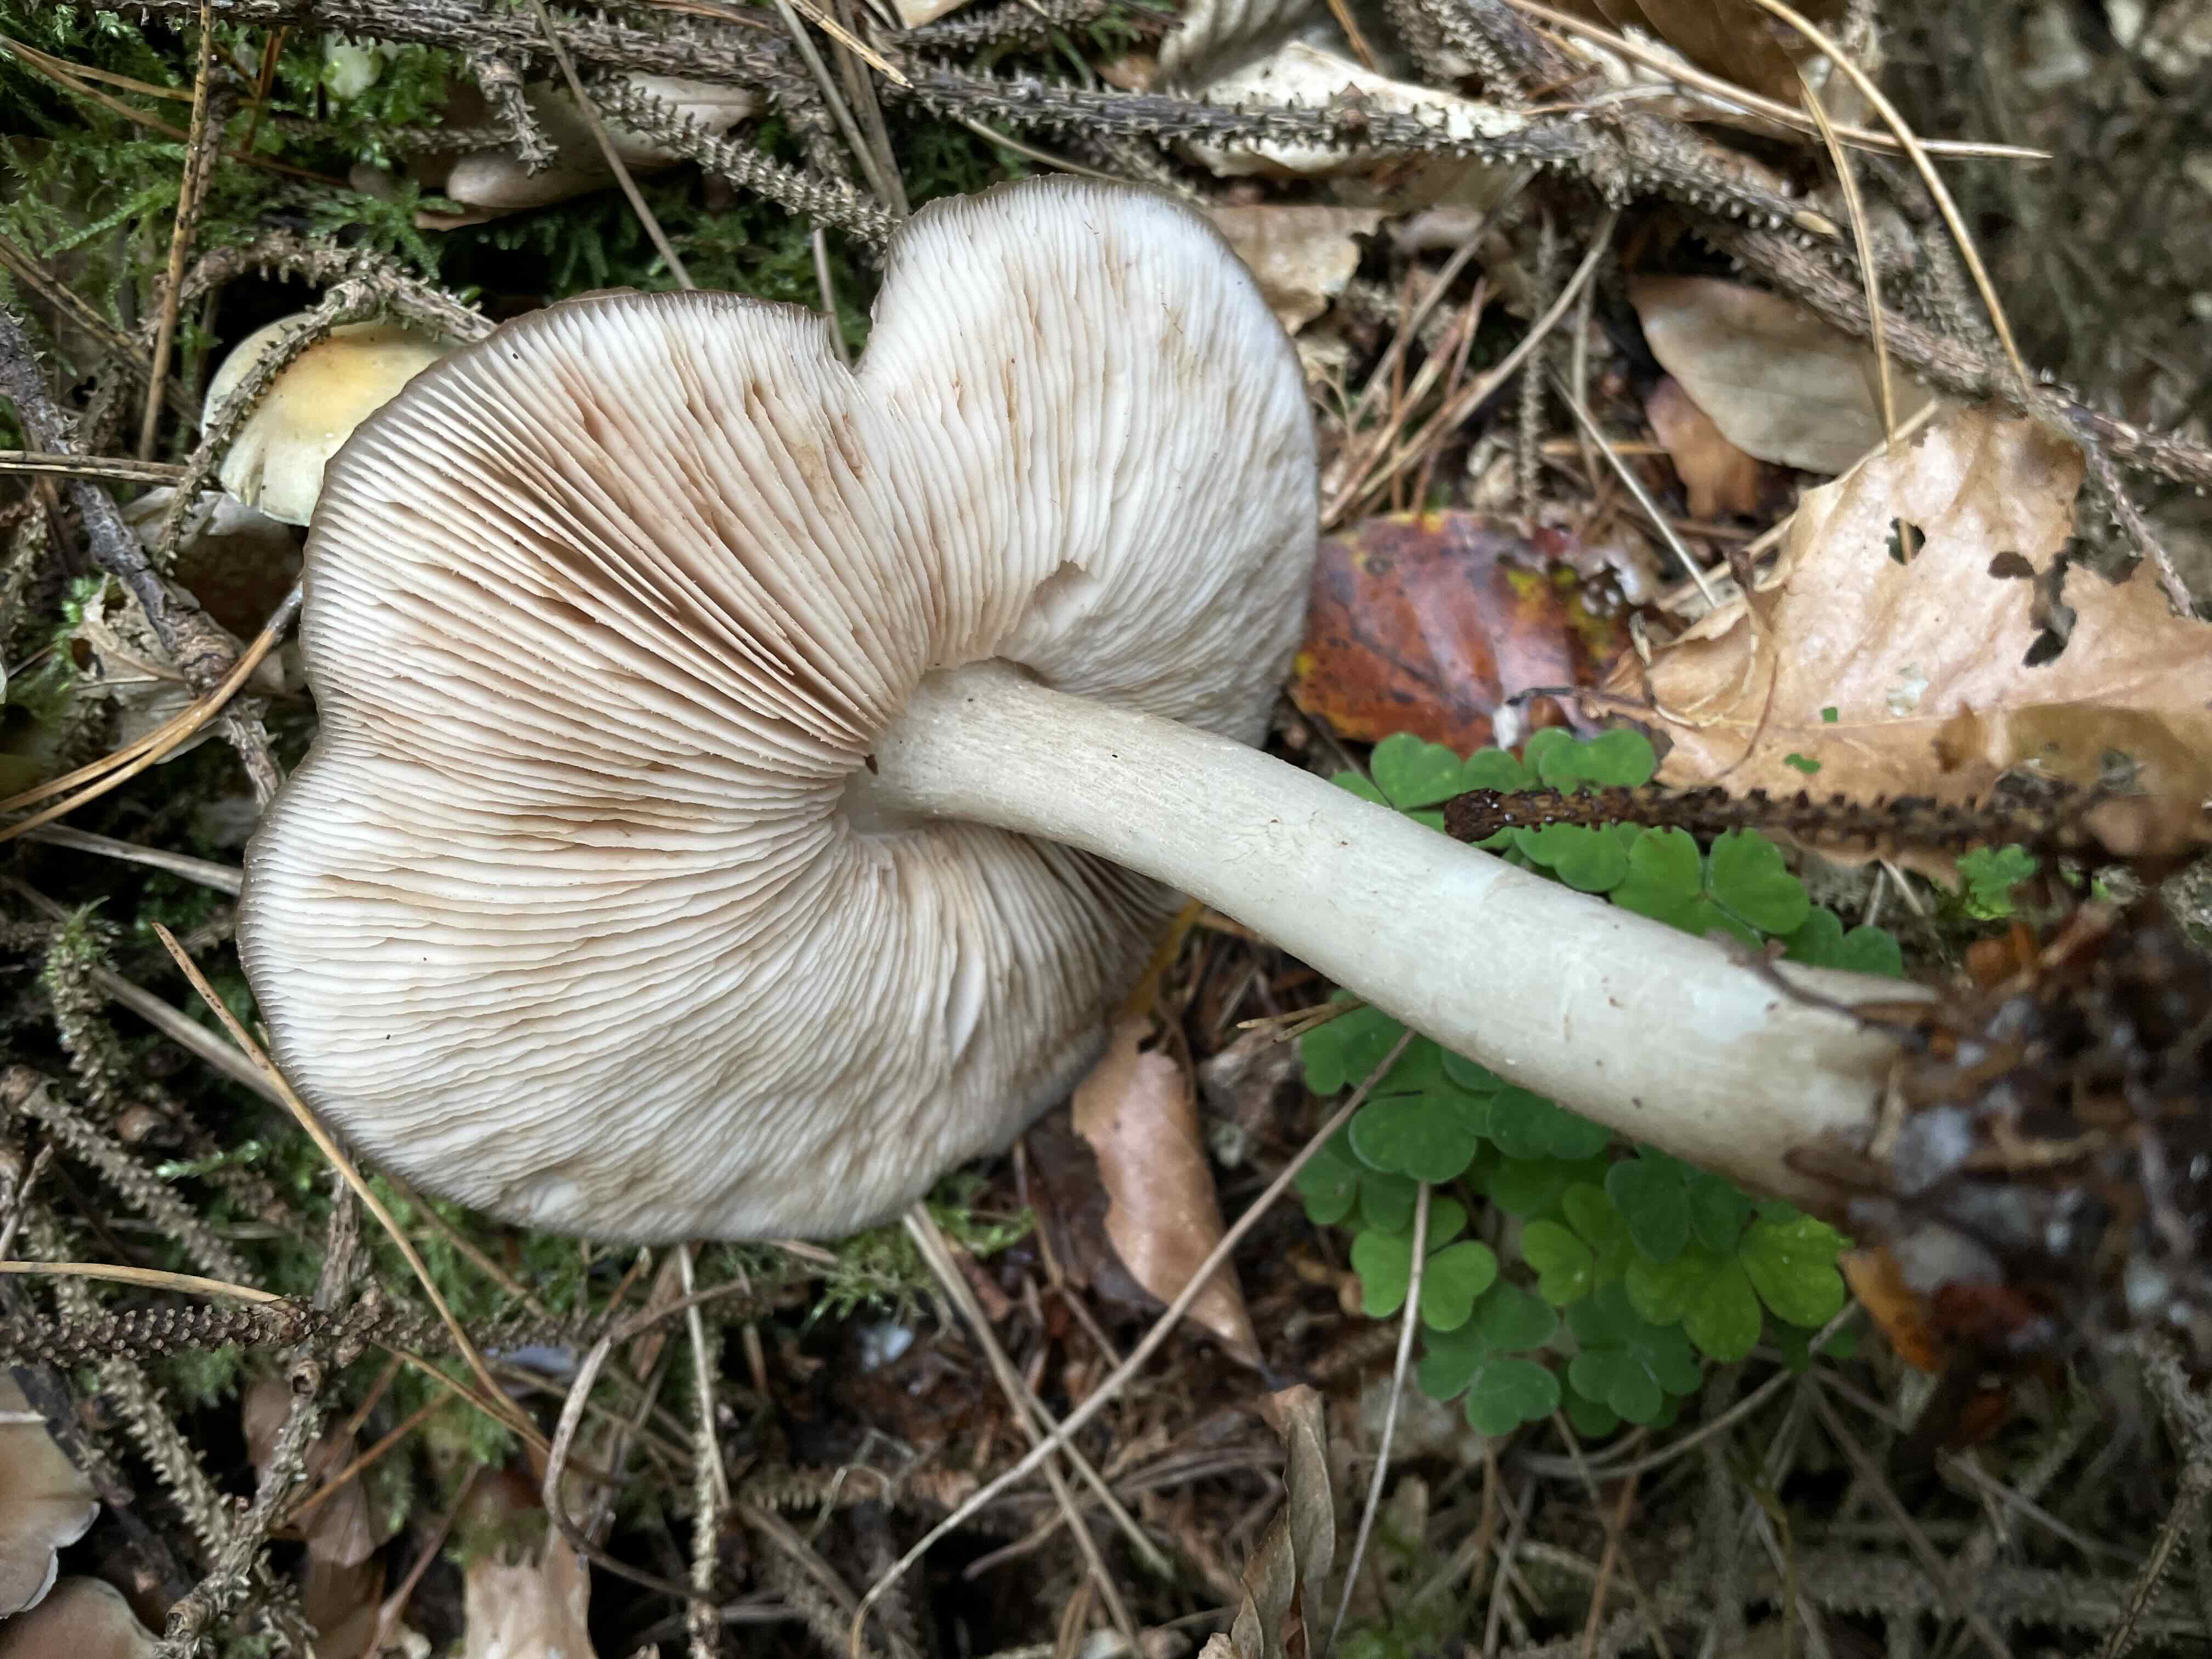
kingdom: Fungi
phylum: Basidiomycota
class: Agaricomycetes
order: Agaricales
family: Pluteaceae
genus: Pluteus
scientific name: Pluteus cervinus
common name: sodfarvet skærmhat
